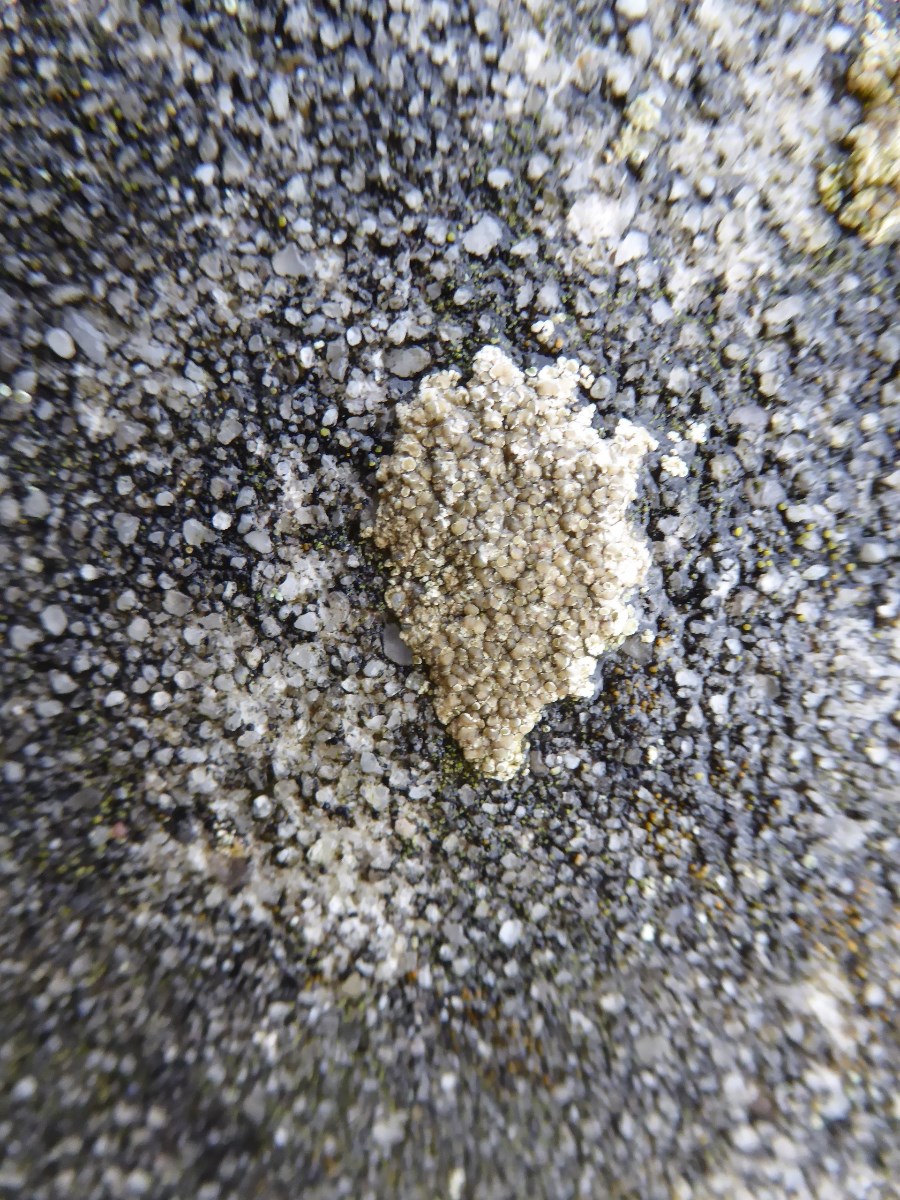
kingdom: Fungi
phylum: Ascomycota
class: Lecanoromycetes
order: Lecanorales
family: Lecanoraceae
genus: Polyozosia
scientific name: Polyozosia albescens
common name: cement-kantskivelav
